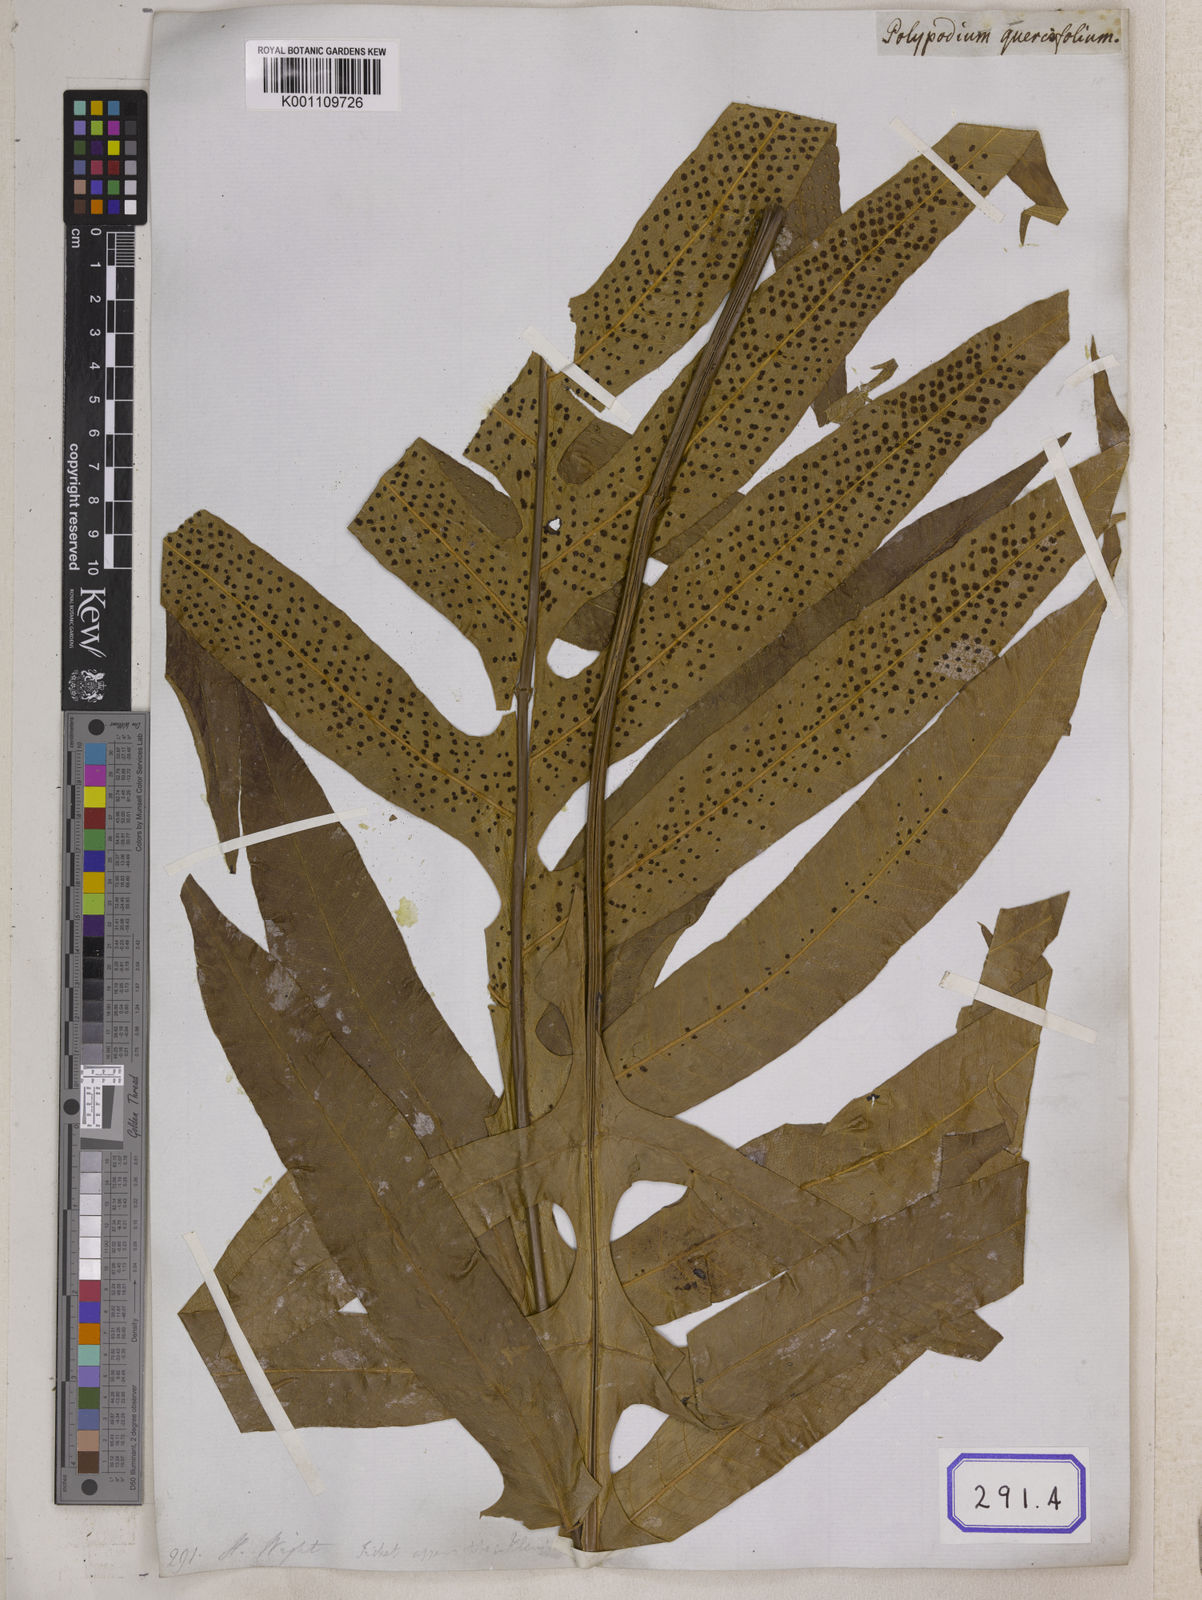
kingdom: Plantae
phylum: Tracheophyta
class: Polypodiopsida
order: Polypodiales
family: Polypodiaceae
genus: Drynaria
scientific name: Drynaria quercifolia
